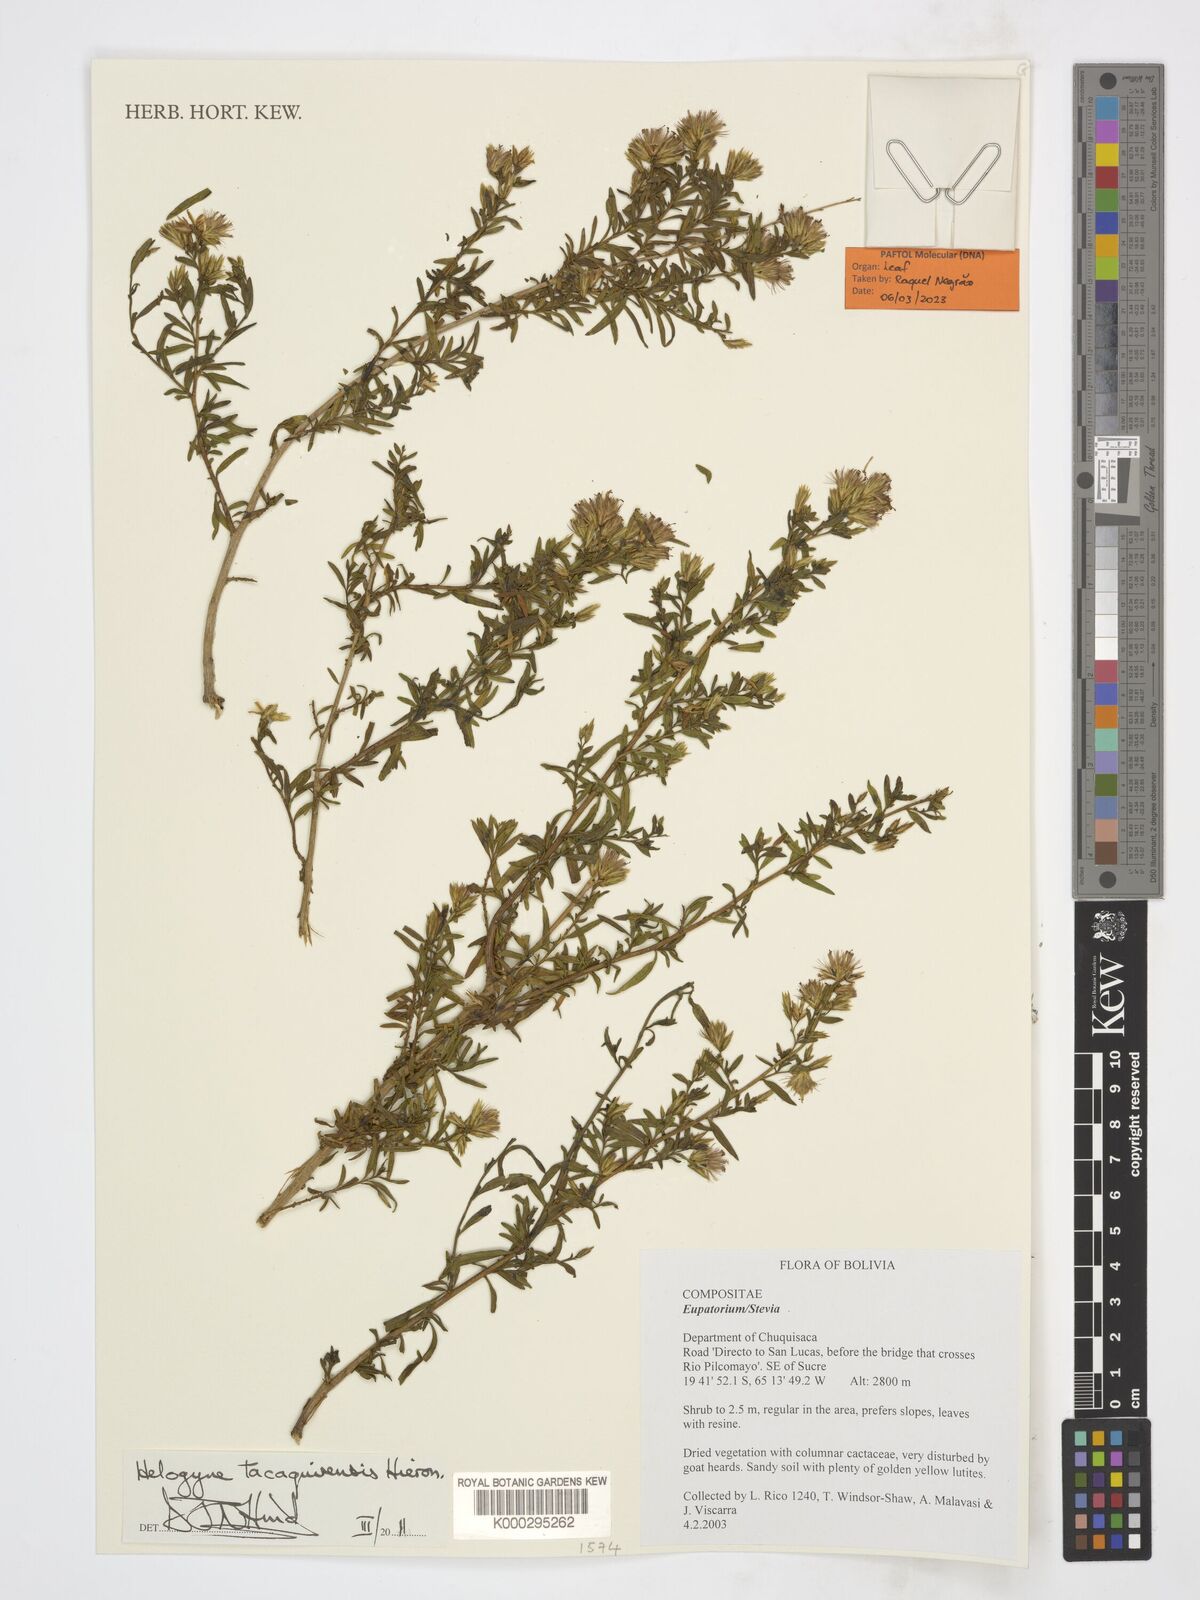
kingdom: Plantae
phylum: Tracheophyta
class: Magnoliopsida
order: Asterales
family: Asteraceae
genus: Helogyne
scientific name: Helogyne tacaquirensis
